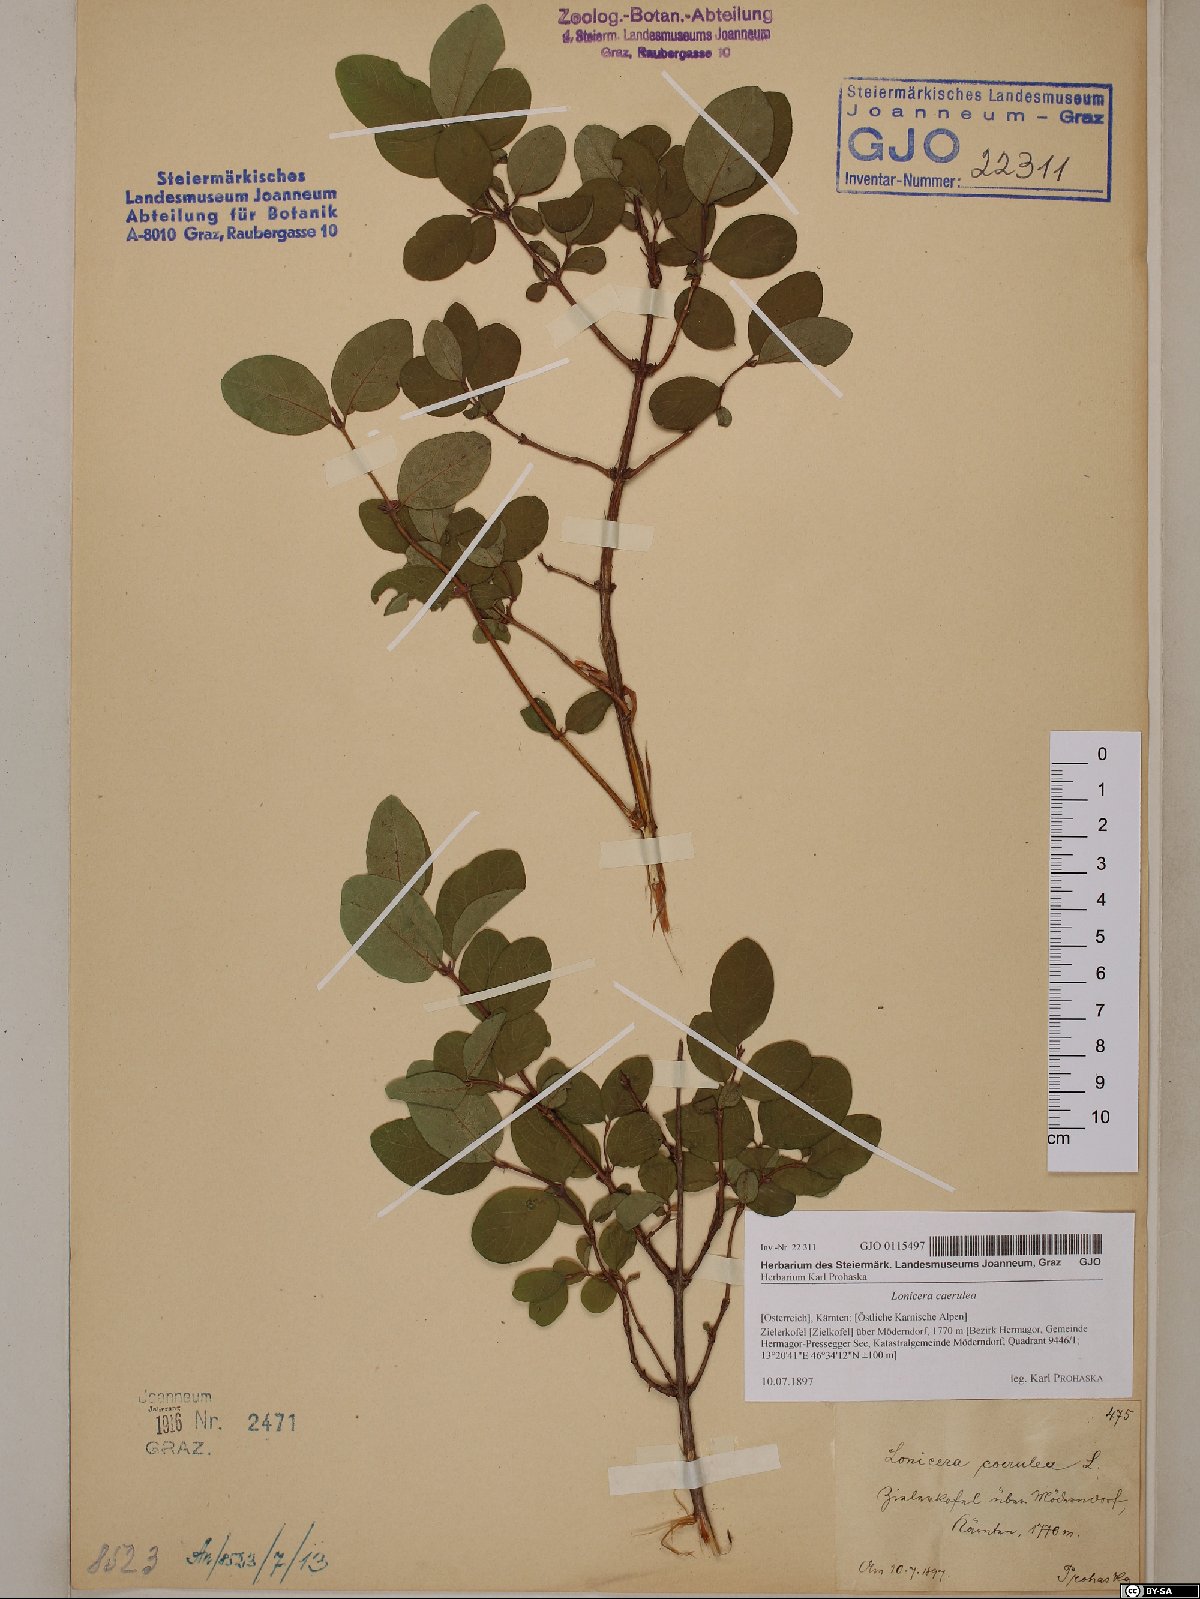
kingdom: Plantae
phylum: Tracheophyta
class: Magnoliopsida
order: Dipsacales
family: Caprifoliaceae
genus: Lonicera
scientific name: Lonicera caerulea
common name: Blue honeysuckle
